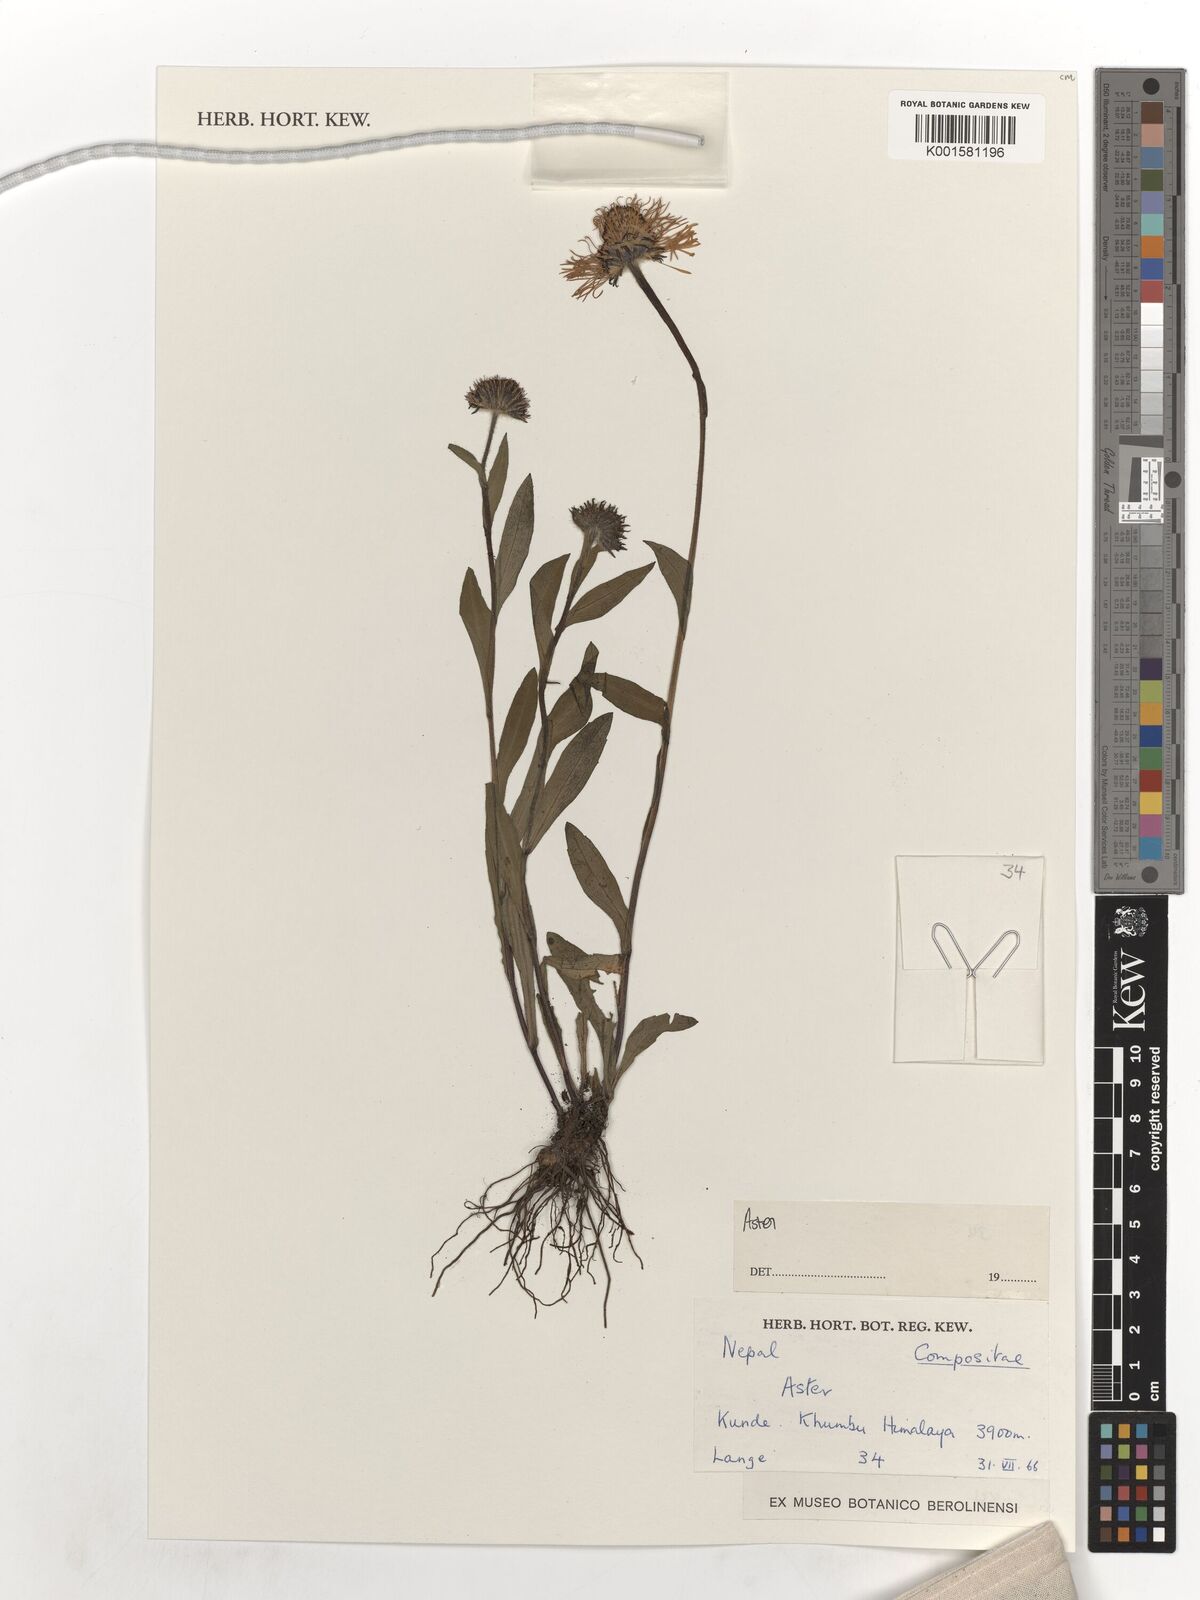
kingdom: Plantae
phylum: Tracheophyta
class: Magnoliopsida
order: Asterales
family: Asteraceae
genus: Aster
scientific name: Aster
